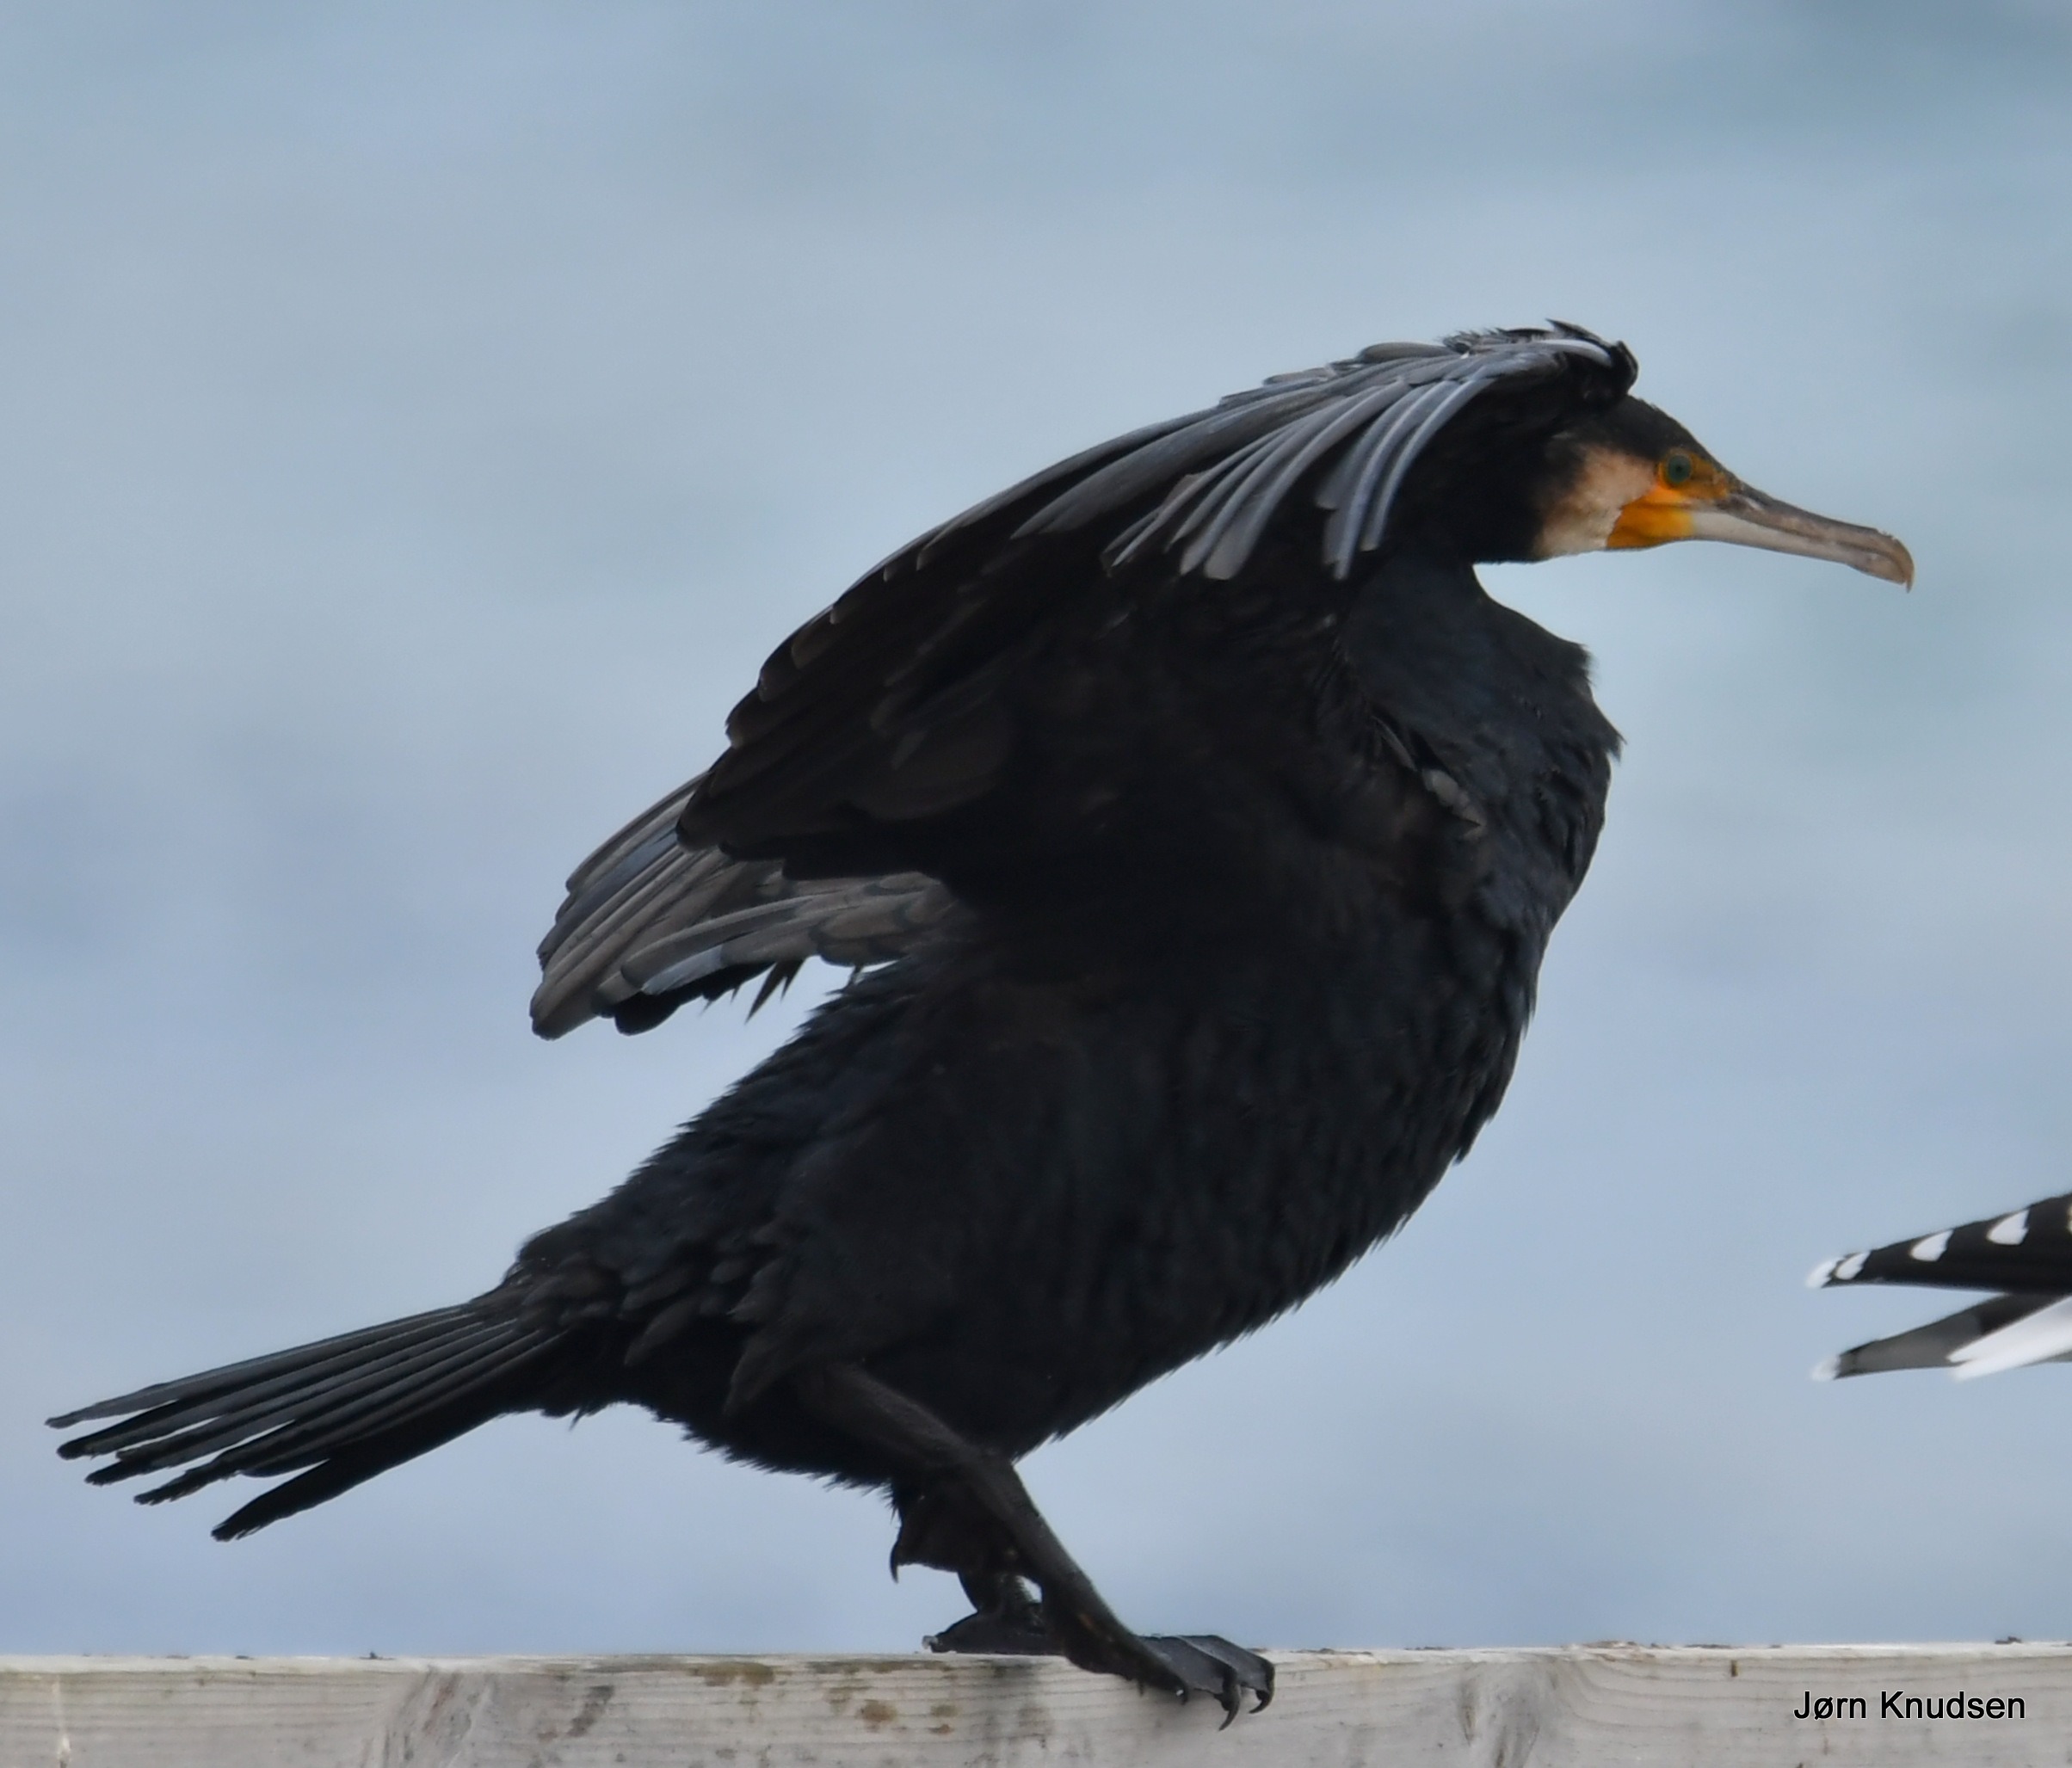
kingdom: Animalia
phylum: Chordata
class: Aves
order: Suliformes
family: Phalacrocoracidae
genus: Phalacrocorax
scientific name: Phalacrocorax carbo
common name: Skarv
